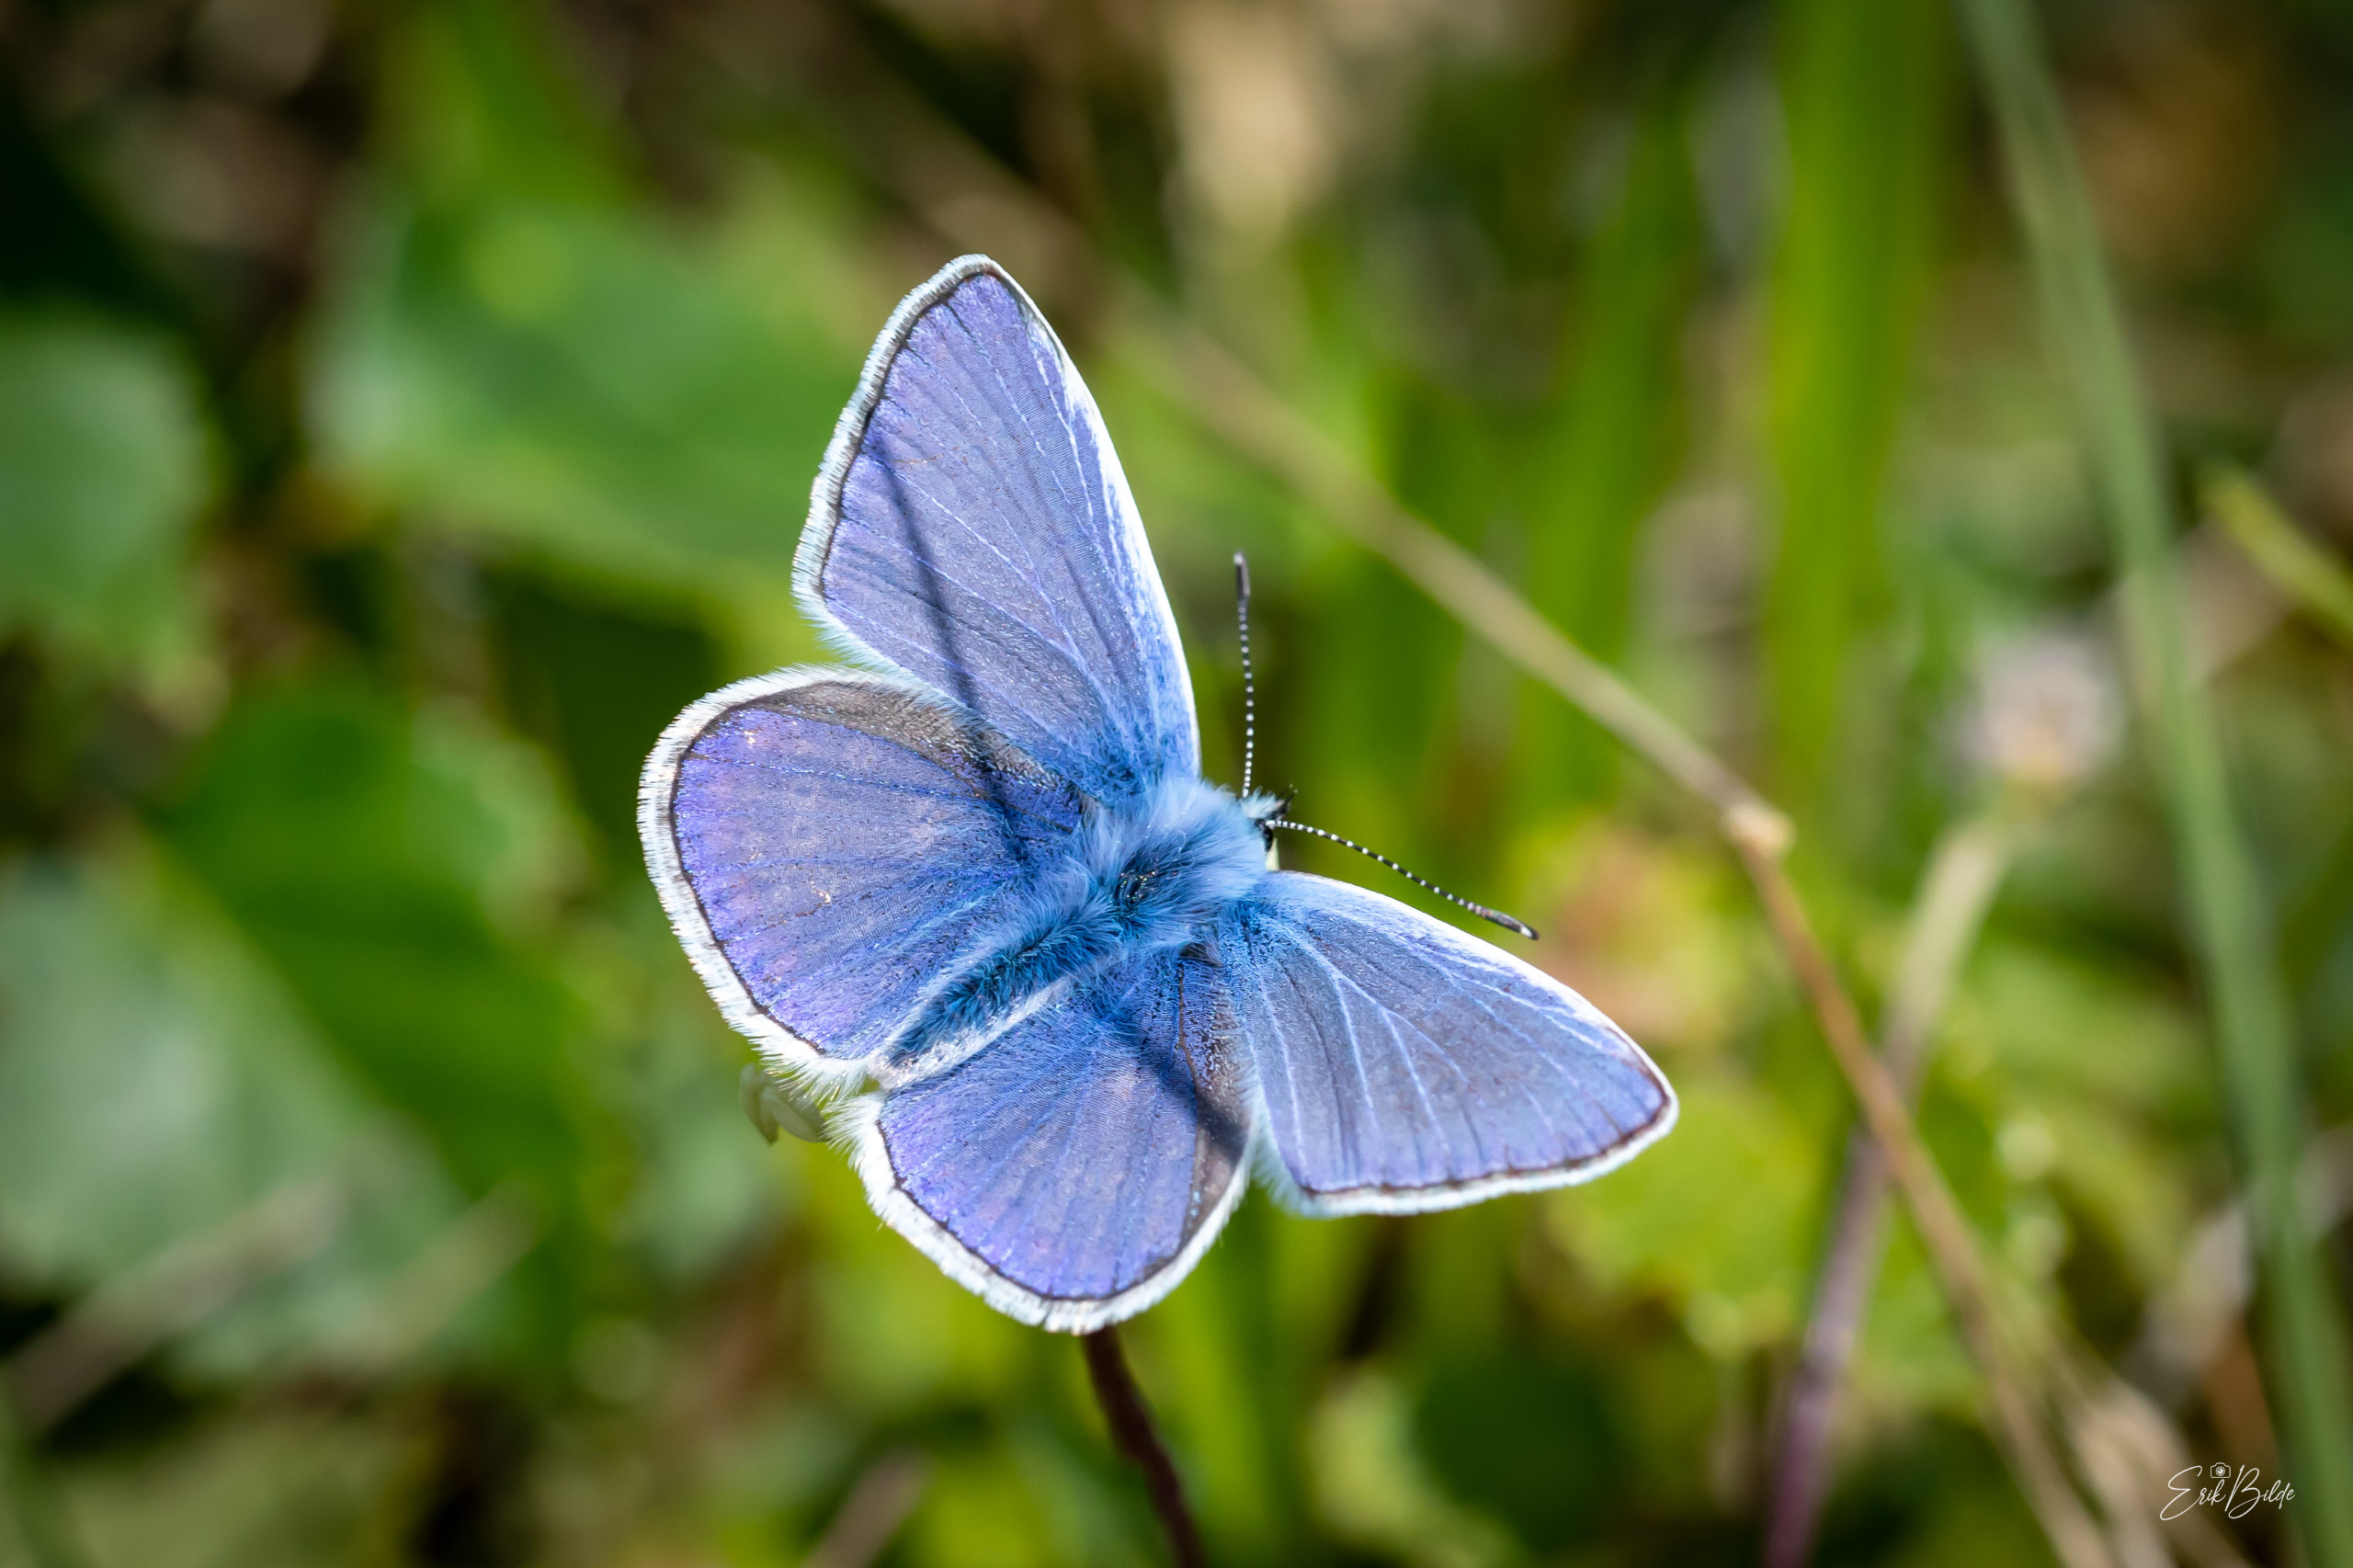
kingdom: Animalia
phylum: Arthropoda
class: Insecta
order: Lepidoptera
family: Lycaenidae
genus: Polyommatus
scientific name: Polyommatus icarus
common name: Almindelig blåfugl
